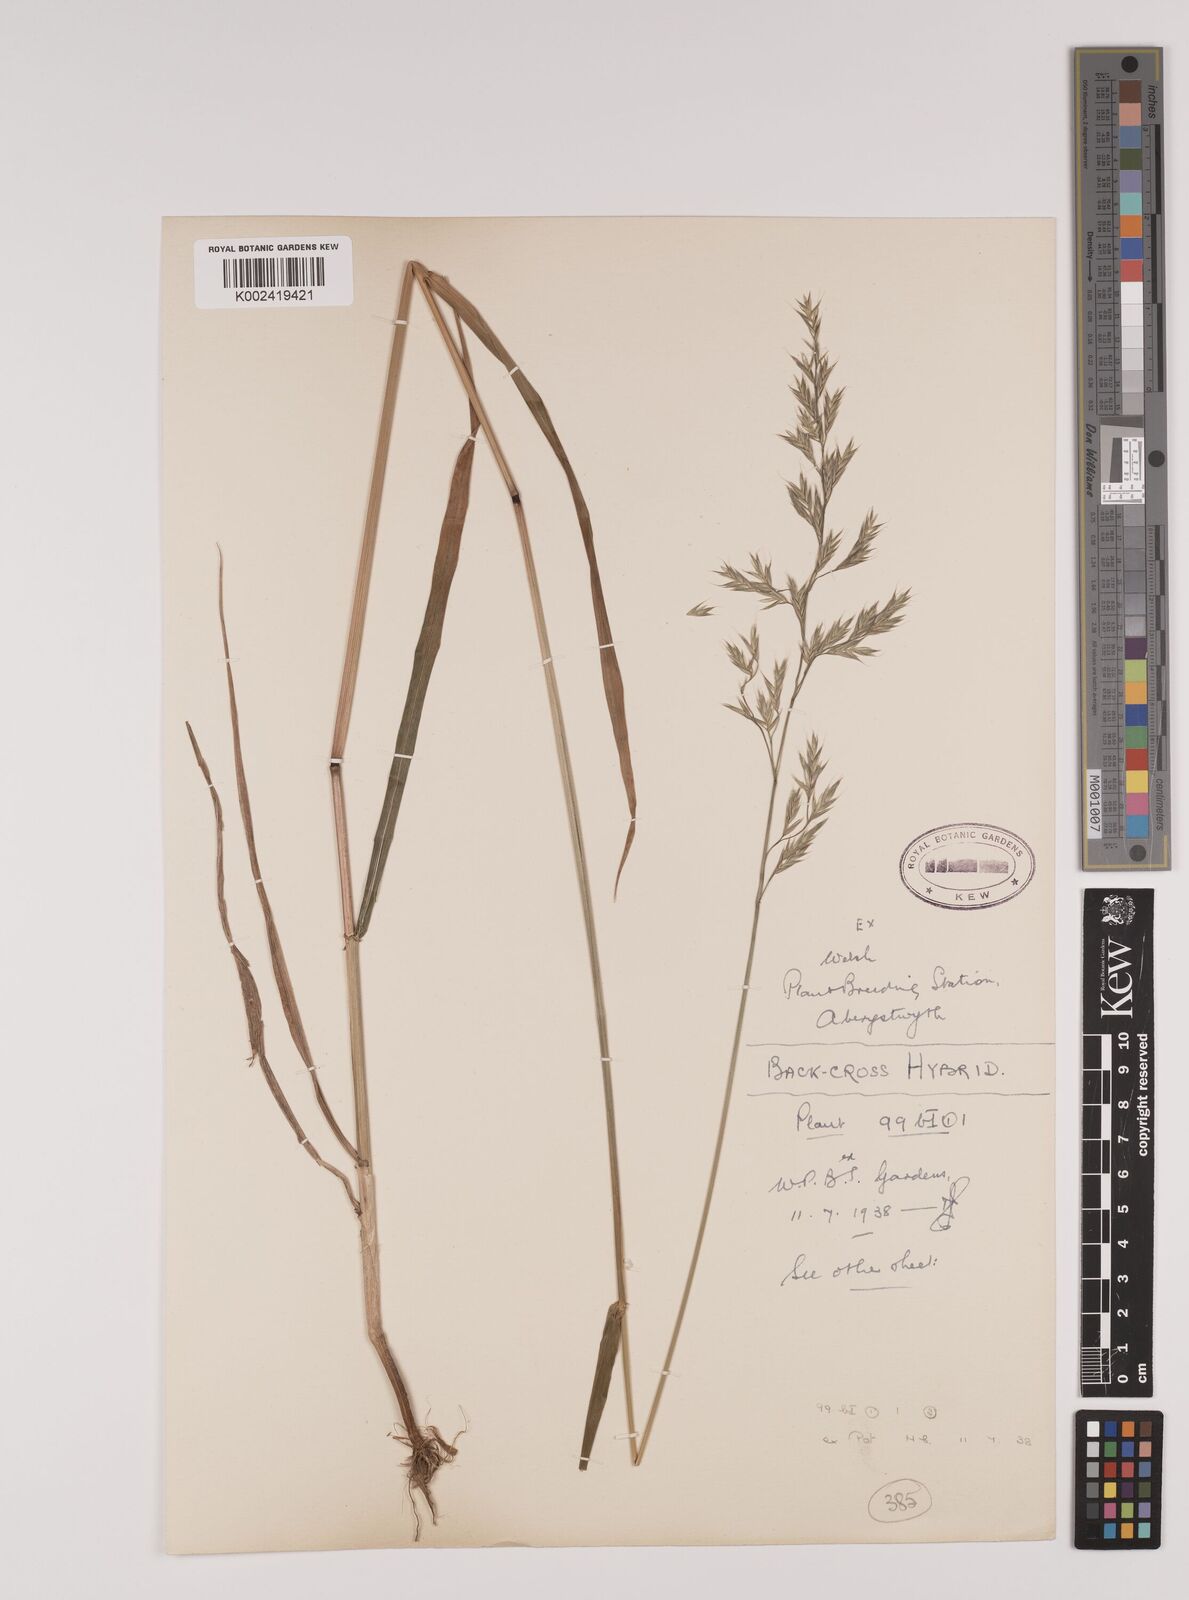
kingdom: Plantae
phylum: Tracheophyta
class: Liliopsida
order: Poales
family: Poaceae
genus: Lolium
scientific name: Lolium giganteum
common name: Giant fescue
